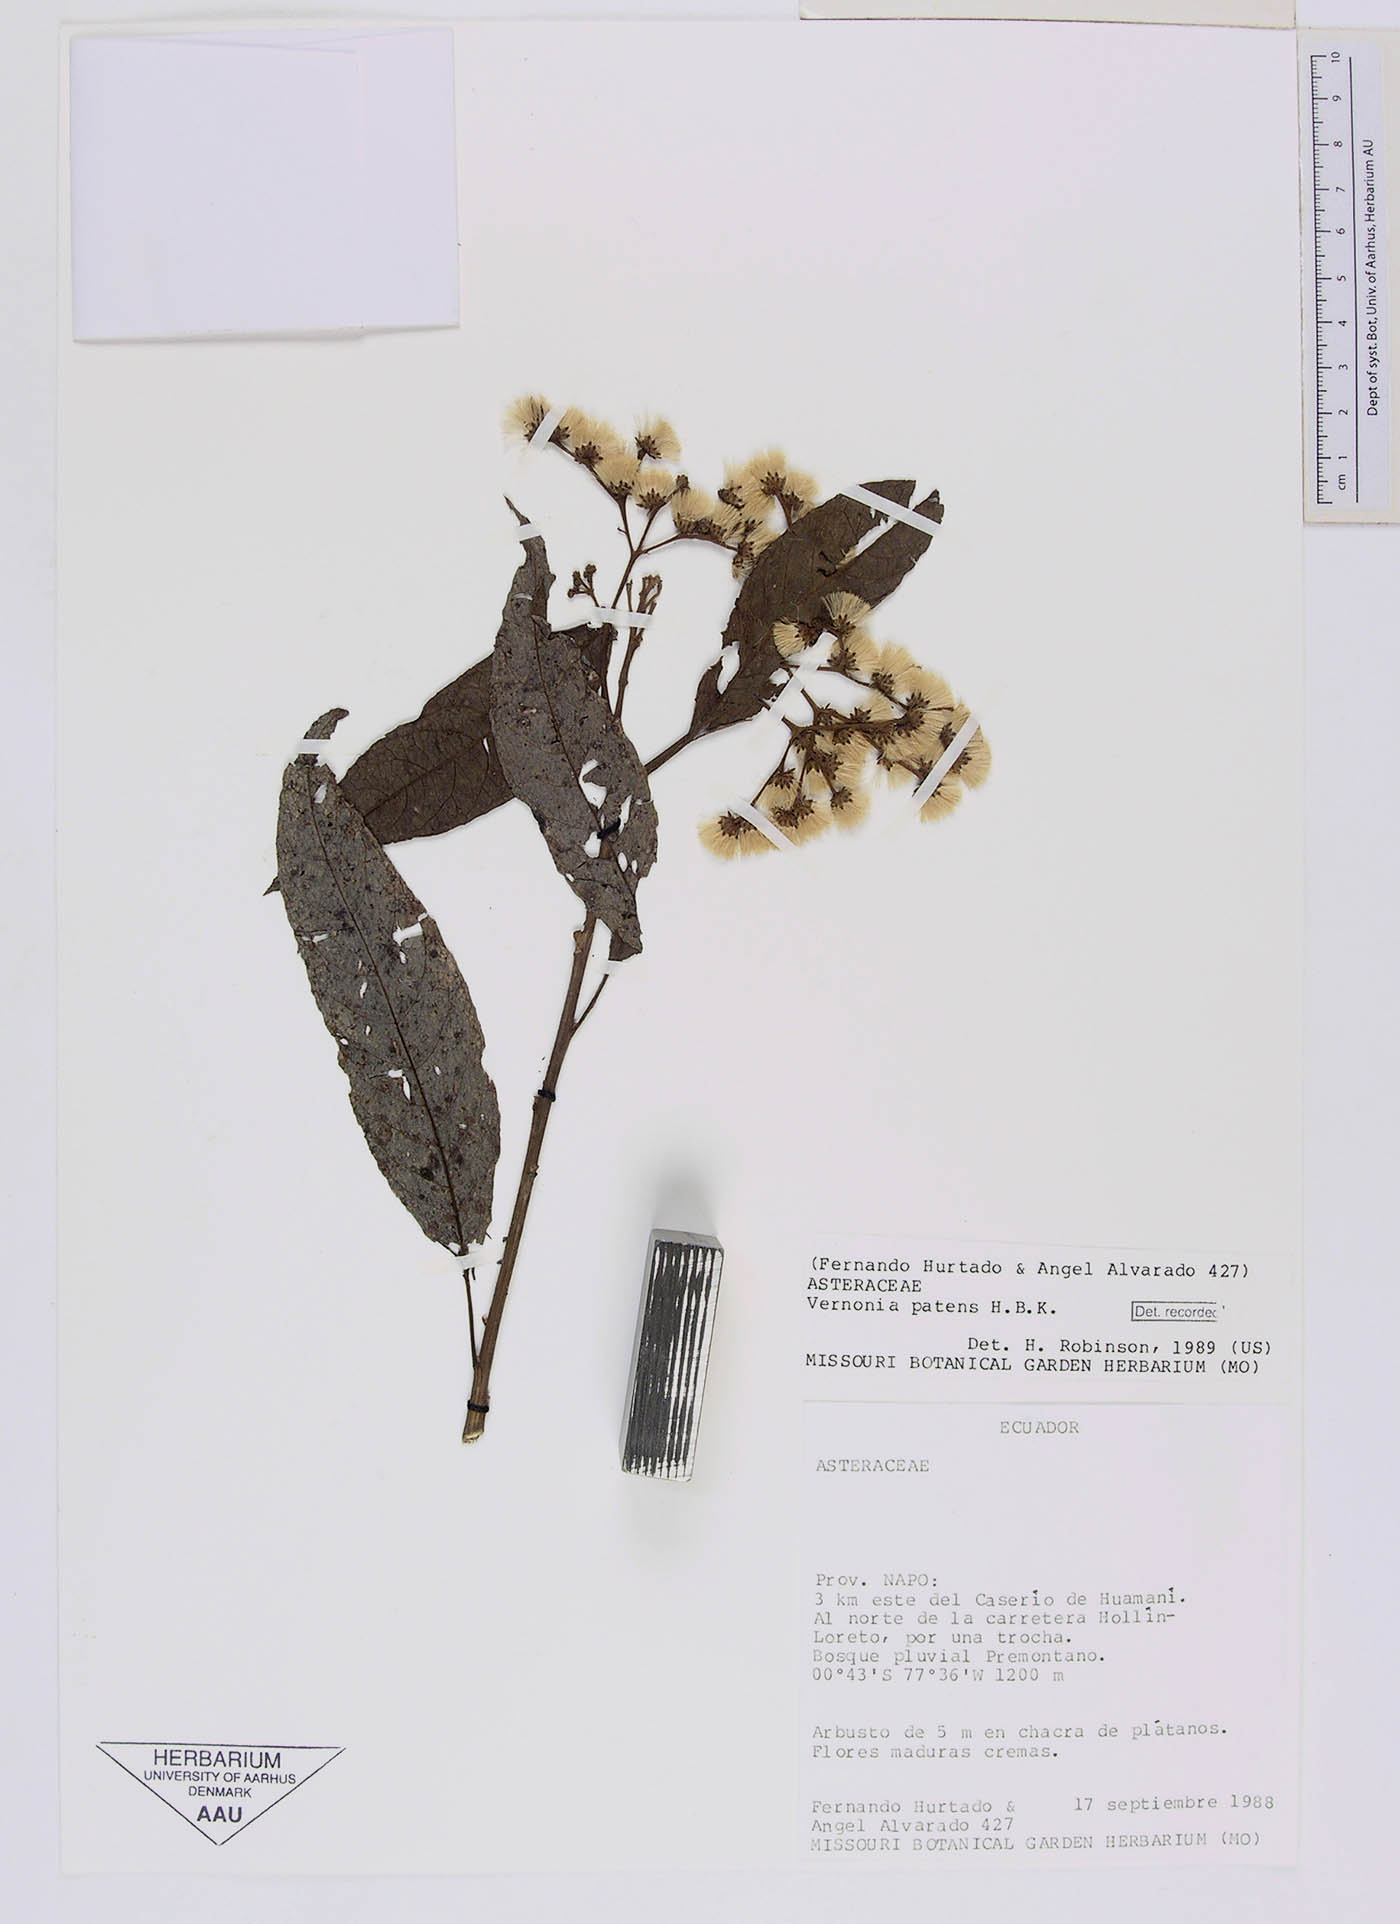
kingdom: Plantae
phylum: Tracheophyta
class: Magnoliopsida
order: Asterales
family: Asteraceae
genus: Vernonanthura
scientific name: Vernonanthura patens
